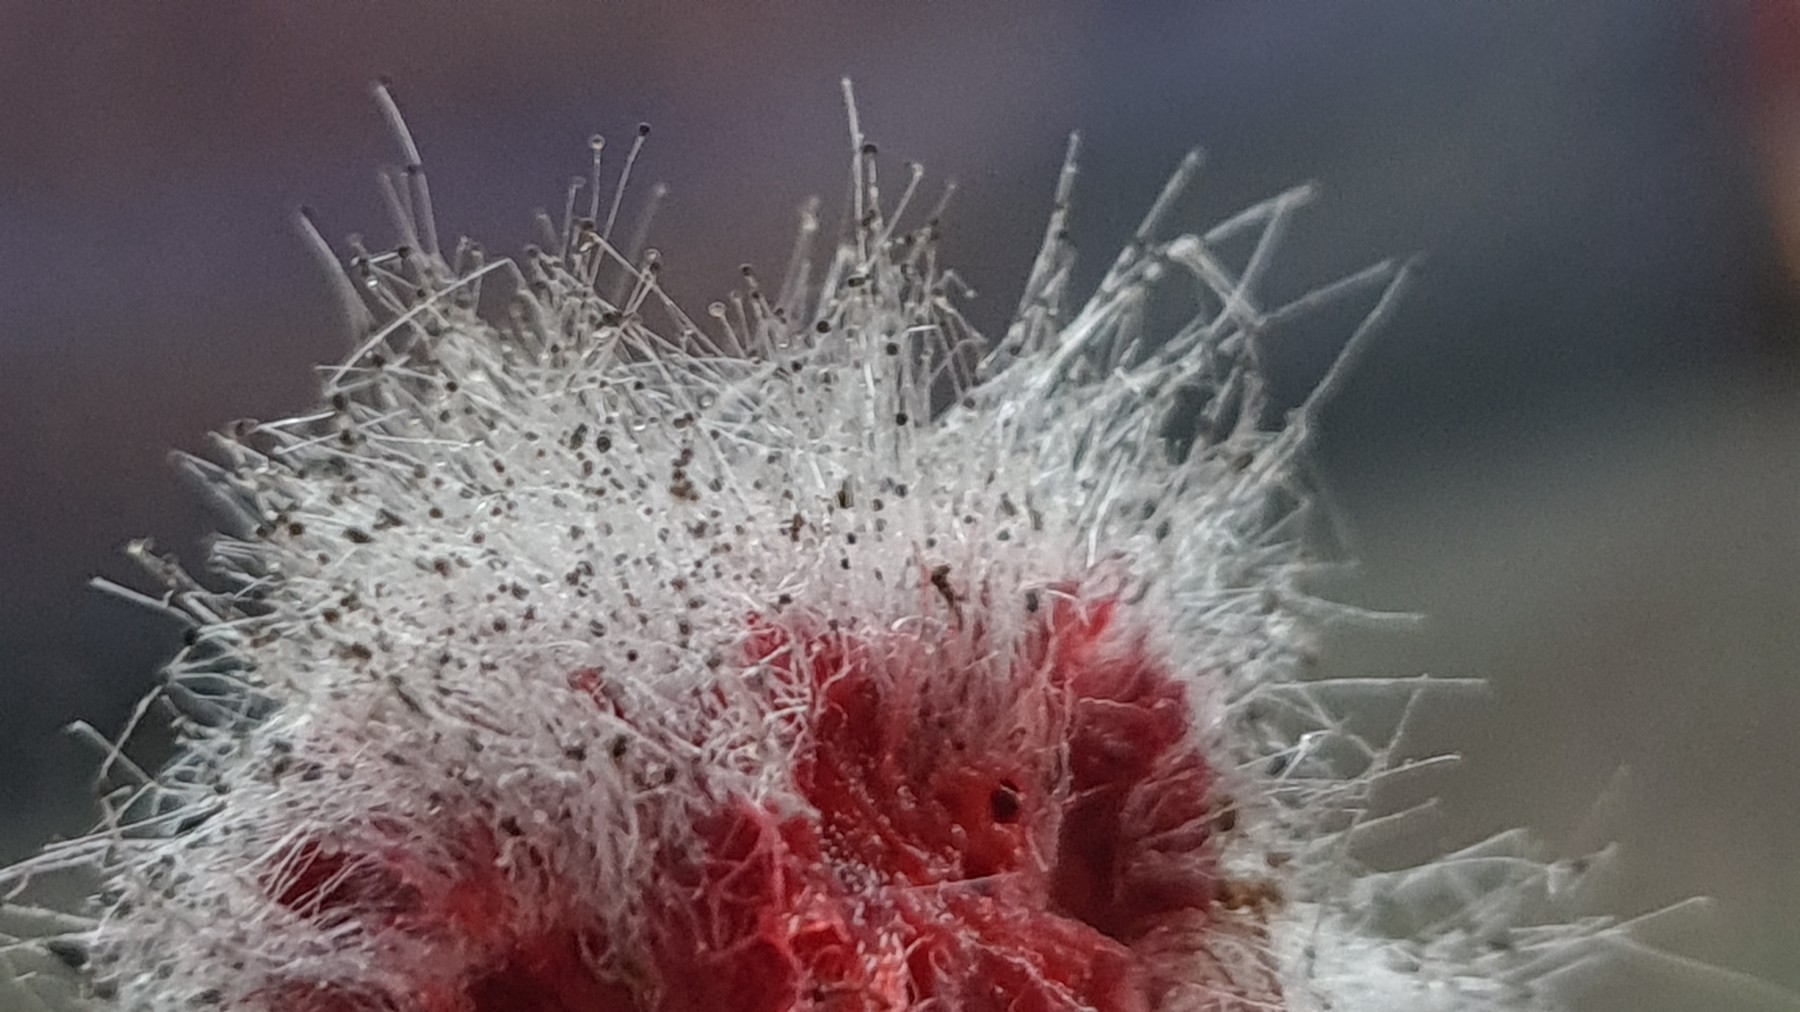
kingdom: Fungi
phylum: Mucoromycota
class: Mucoromycetes
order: Mucorales
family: Mucoraceae
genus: Mucor
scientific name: Mucor
